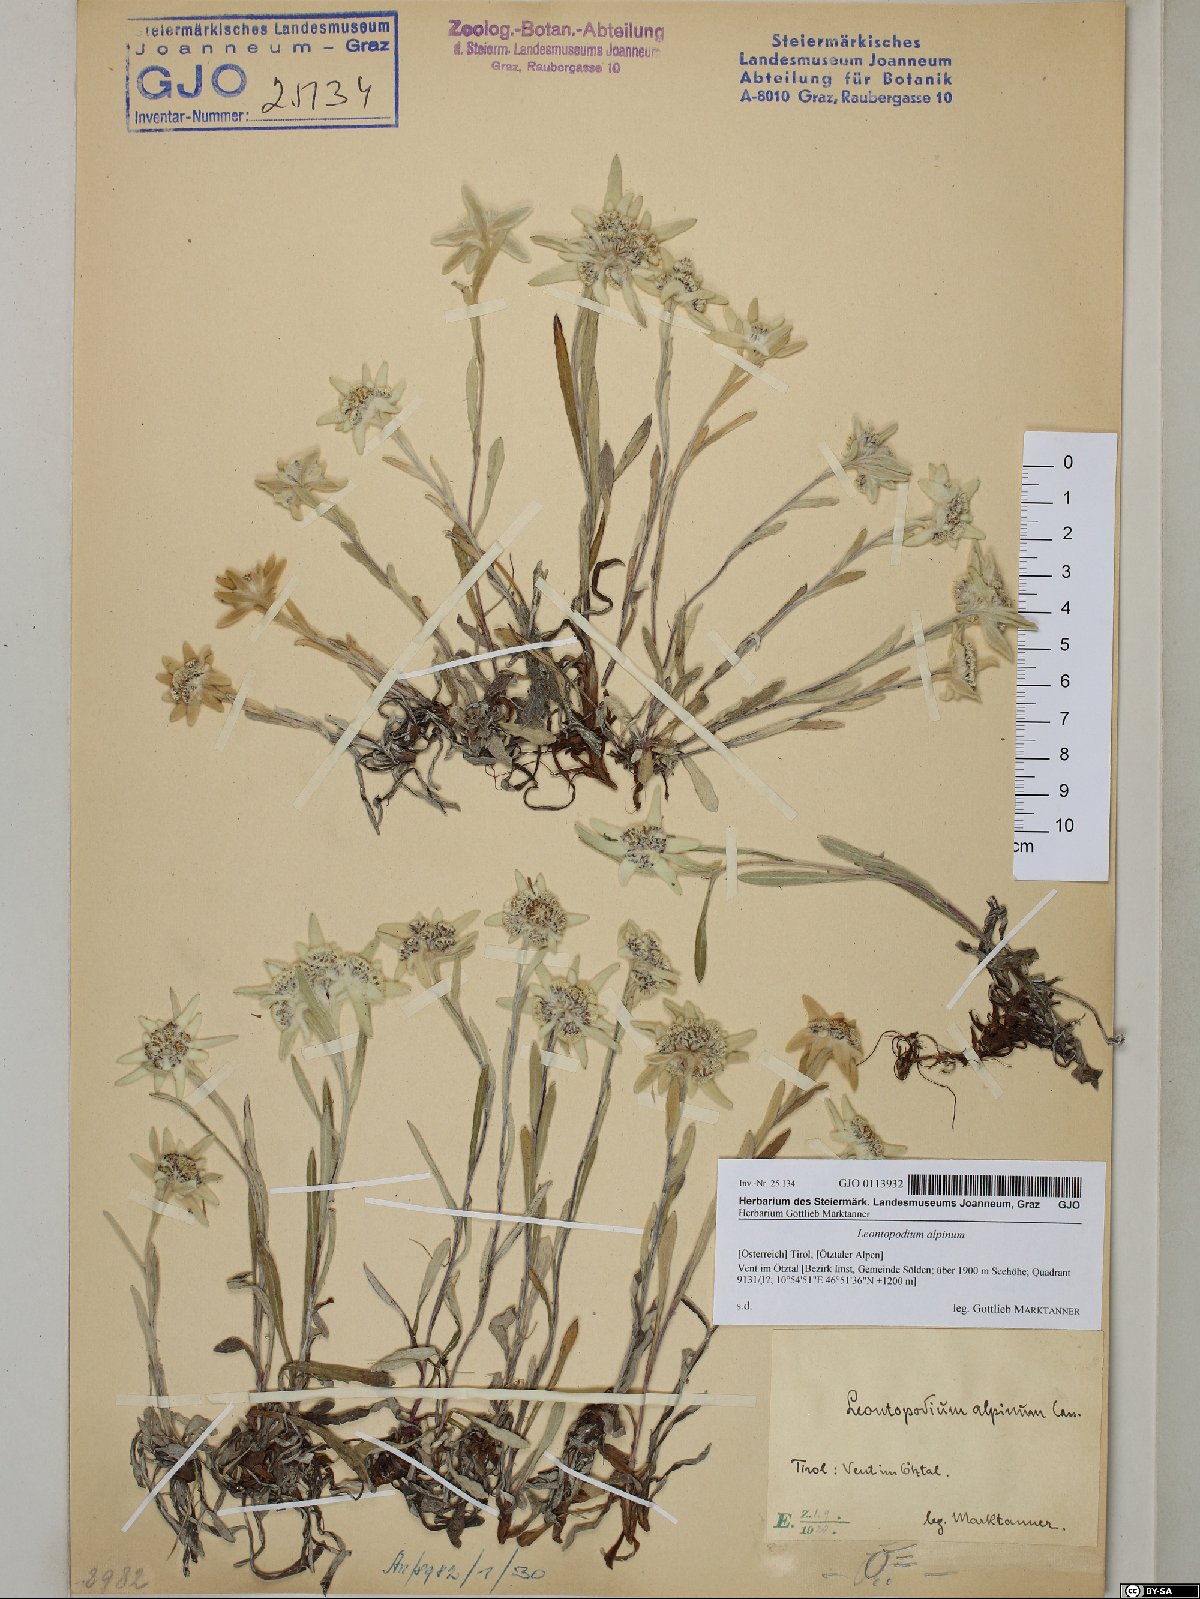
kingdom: Plantae
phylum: Tracheophyta
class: Magnoliopsida
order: Asterales
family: Asteraceae
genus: Leontopodium
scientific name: Leontopodium nivale
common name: Edelweiss
